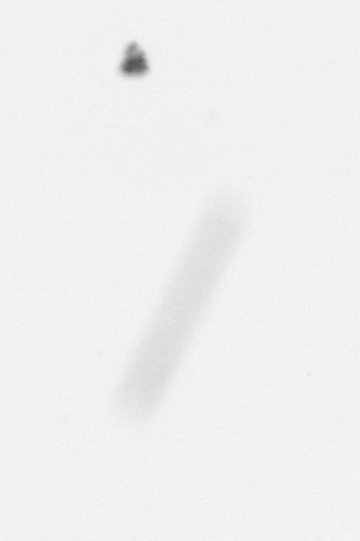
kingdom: Chromista
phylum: Ochrophyta
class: Bacillariophyceae
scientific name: Bacillariophyceae
